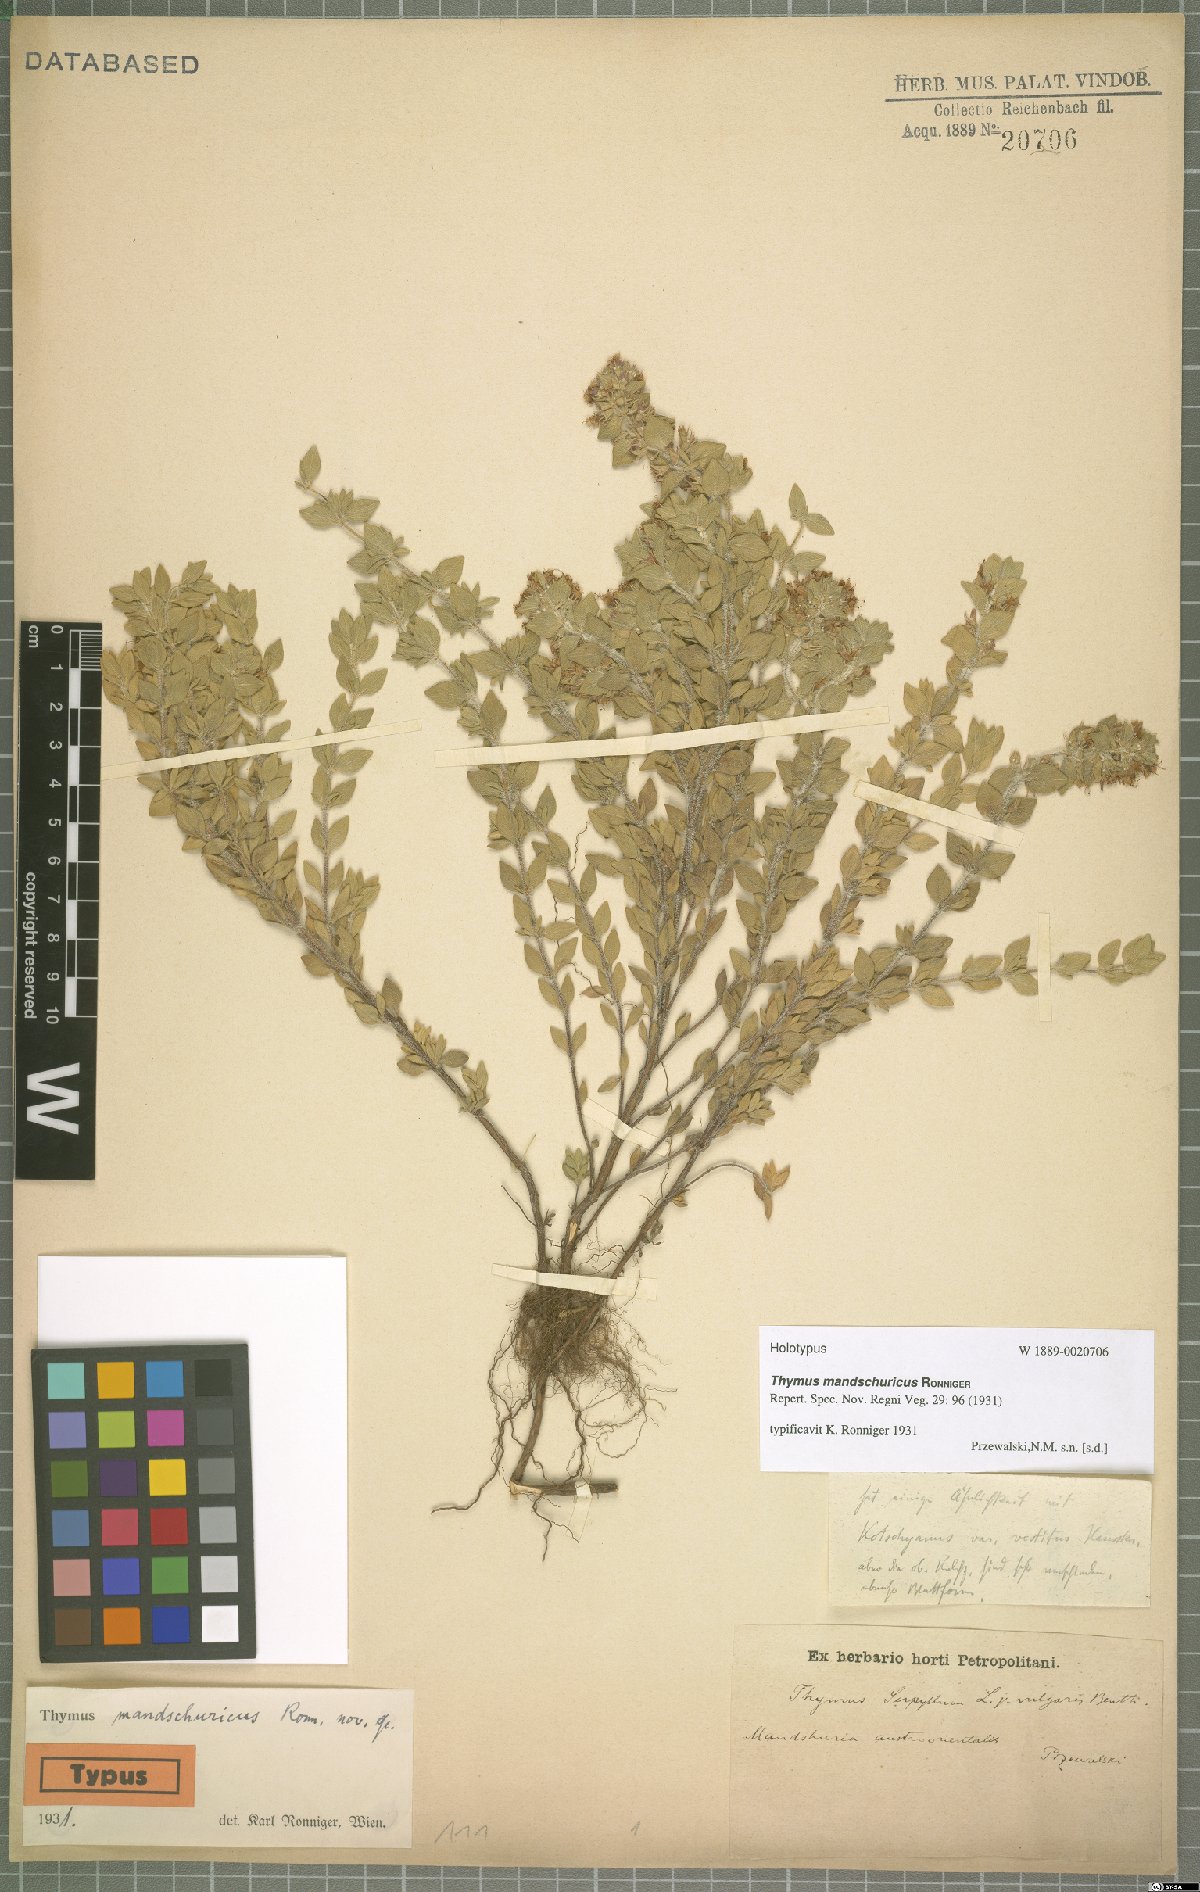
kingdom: Plantae
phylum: Tracheophyta
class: Magnoliopsida
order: Lamiales
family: Lamiaceae
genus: Thymus
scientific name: Thymus mandschuricus
